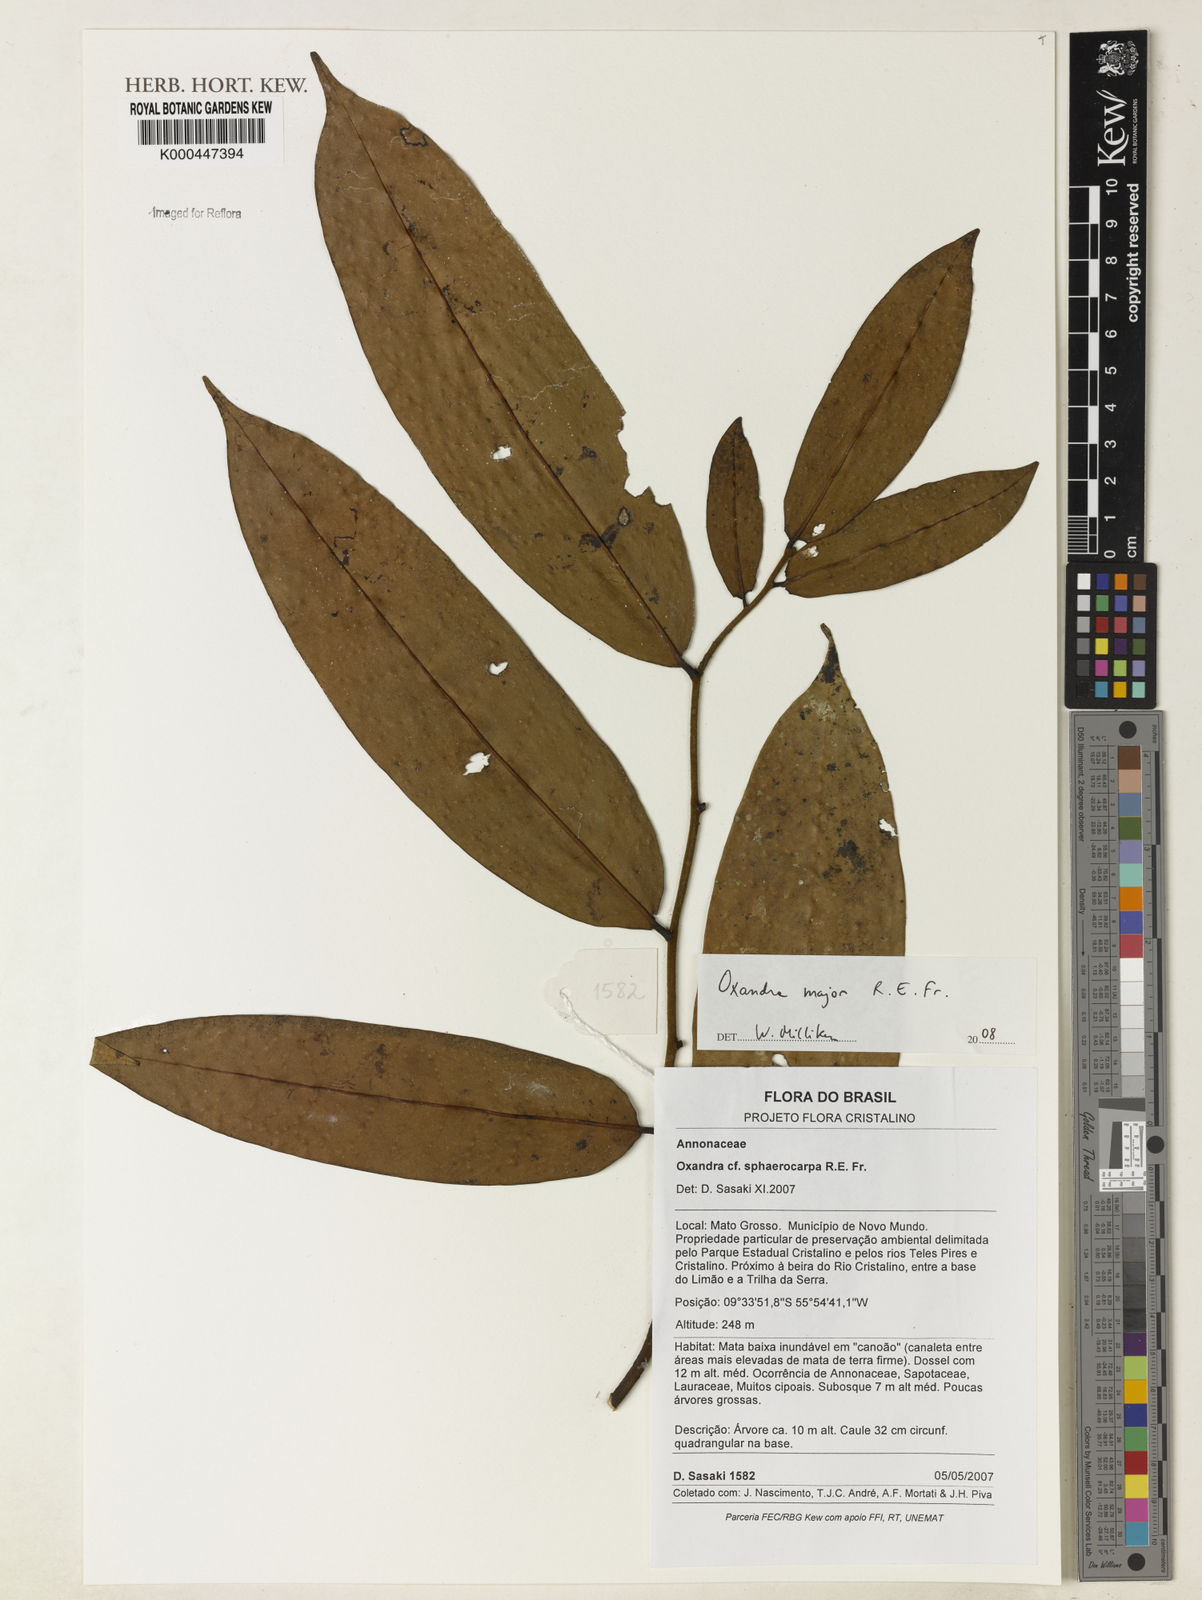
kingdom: Plantae
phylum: Tracheophyta
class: Magnoliopsida
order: Magnoliales
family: Annonaceae
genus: Oxandra
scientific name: Oxandra major
